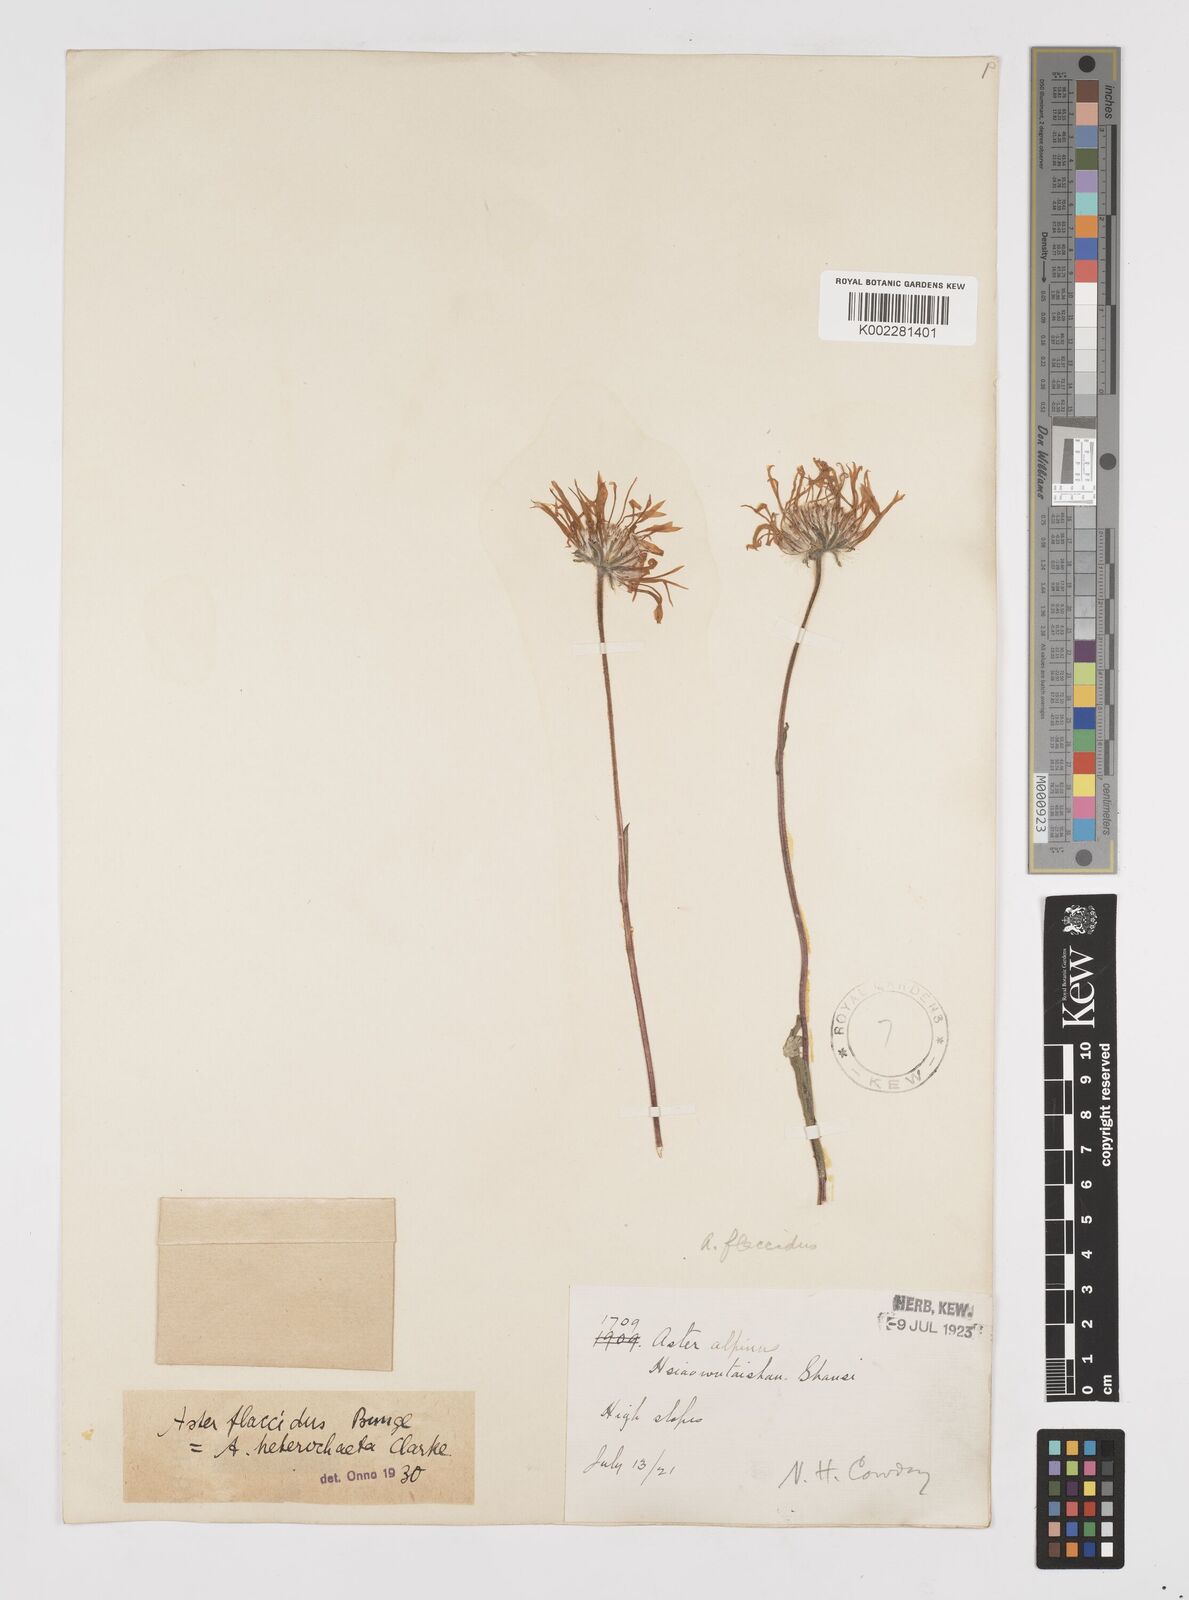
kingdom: Plantae
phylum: Tracheophyta
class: Magnoliopsida
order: Asterales
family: Asteraceae
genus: Tibetiodes
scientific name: Tibetiodes flaccida
